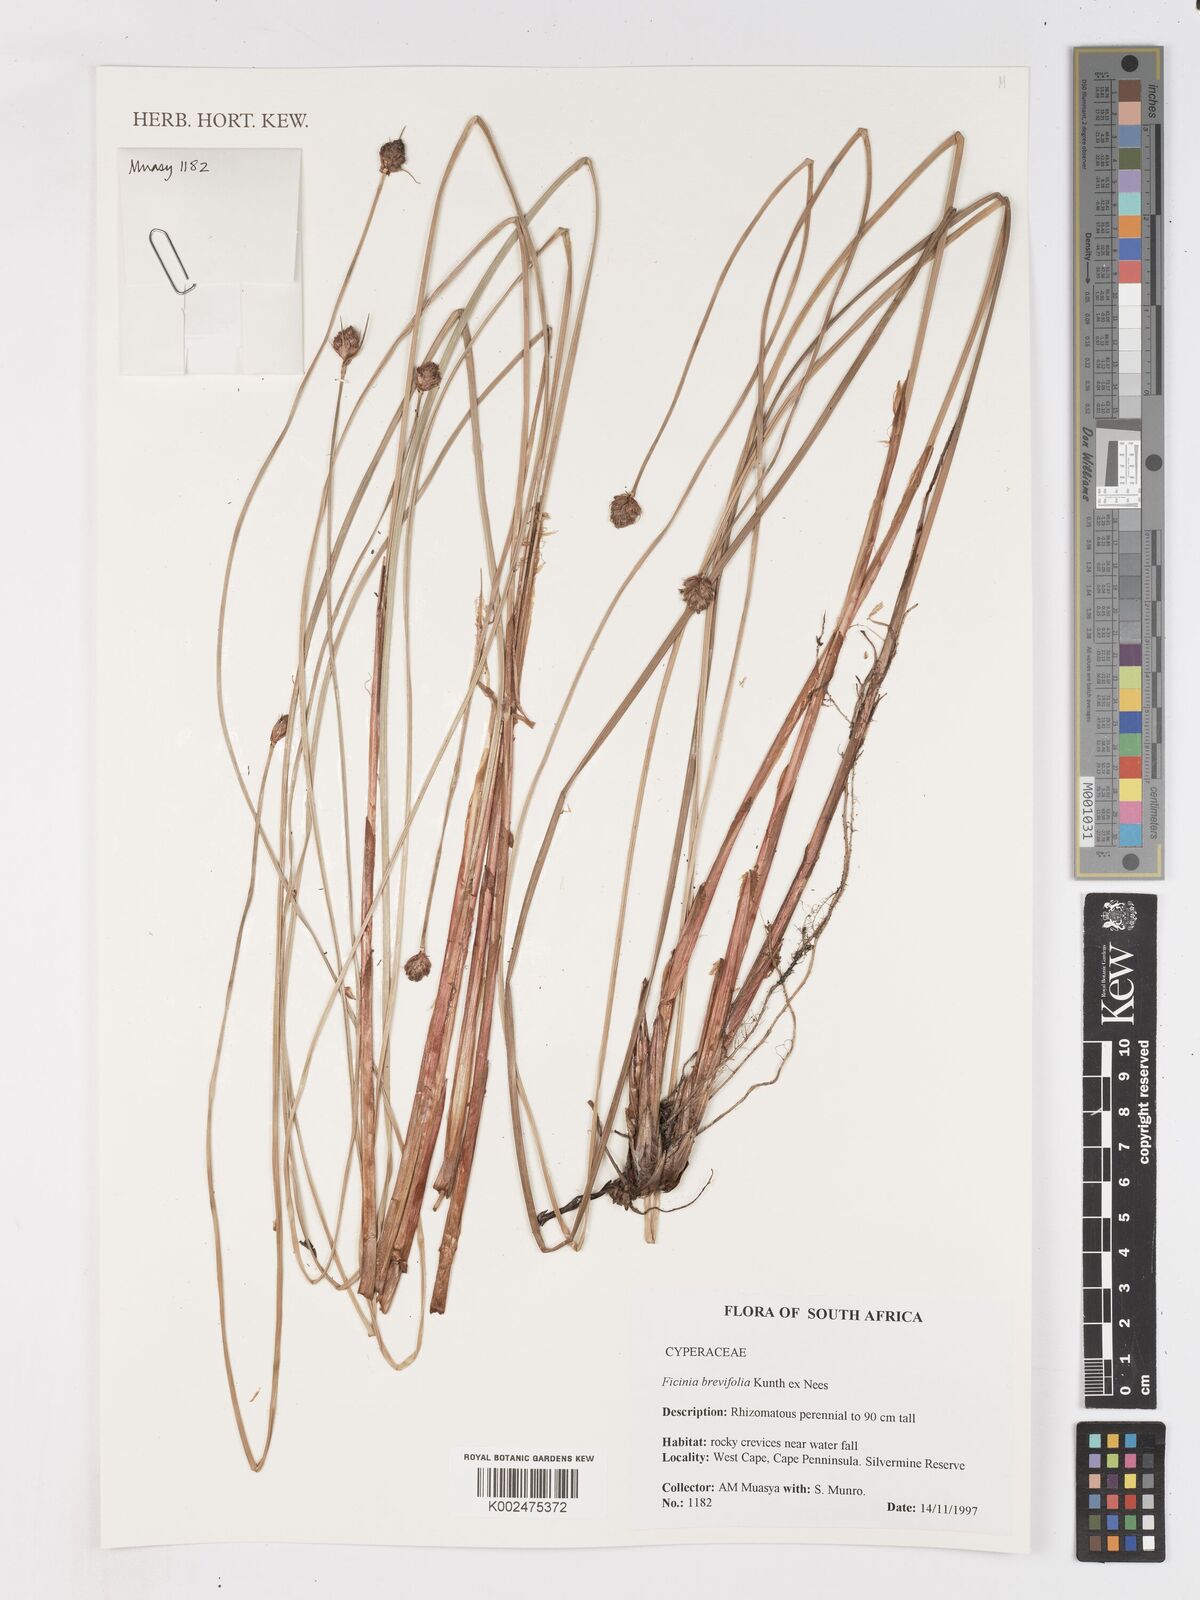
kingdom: Plantae
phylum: Tracheophyta
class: Liliopsida
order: Poales
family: Cyperaceae
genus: Ficinia
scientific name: Ficinia brevifolia
